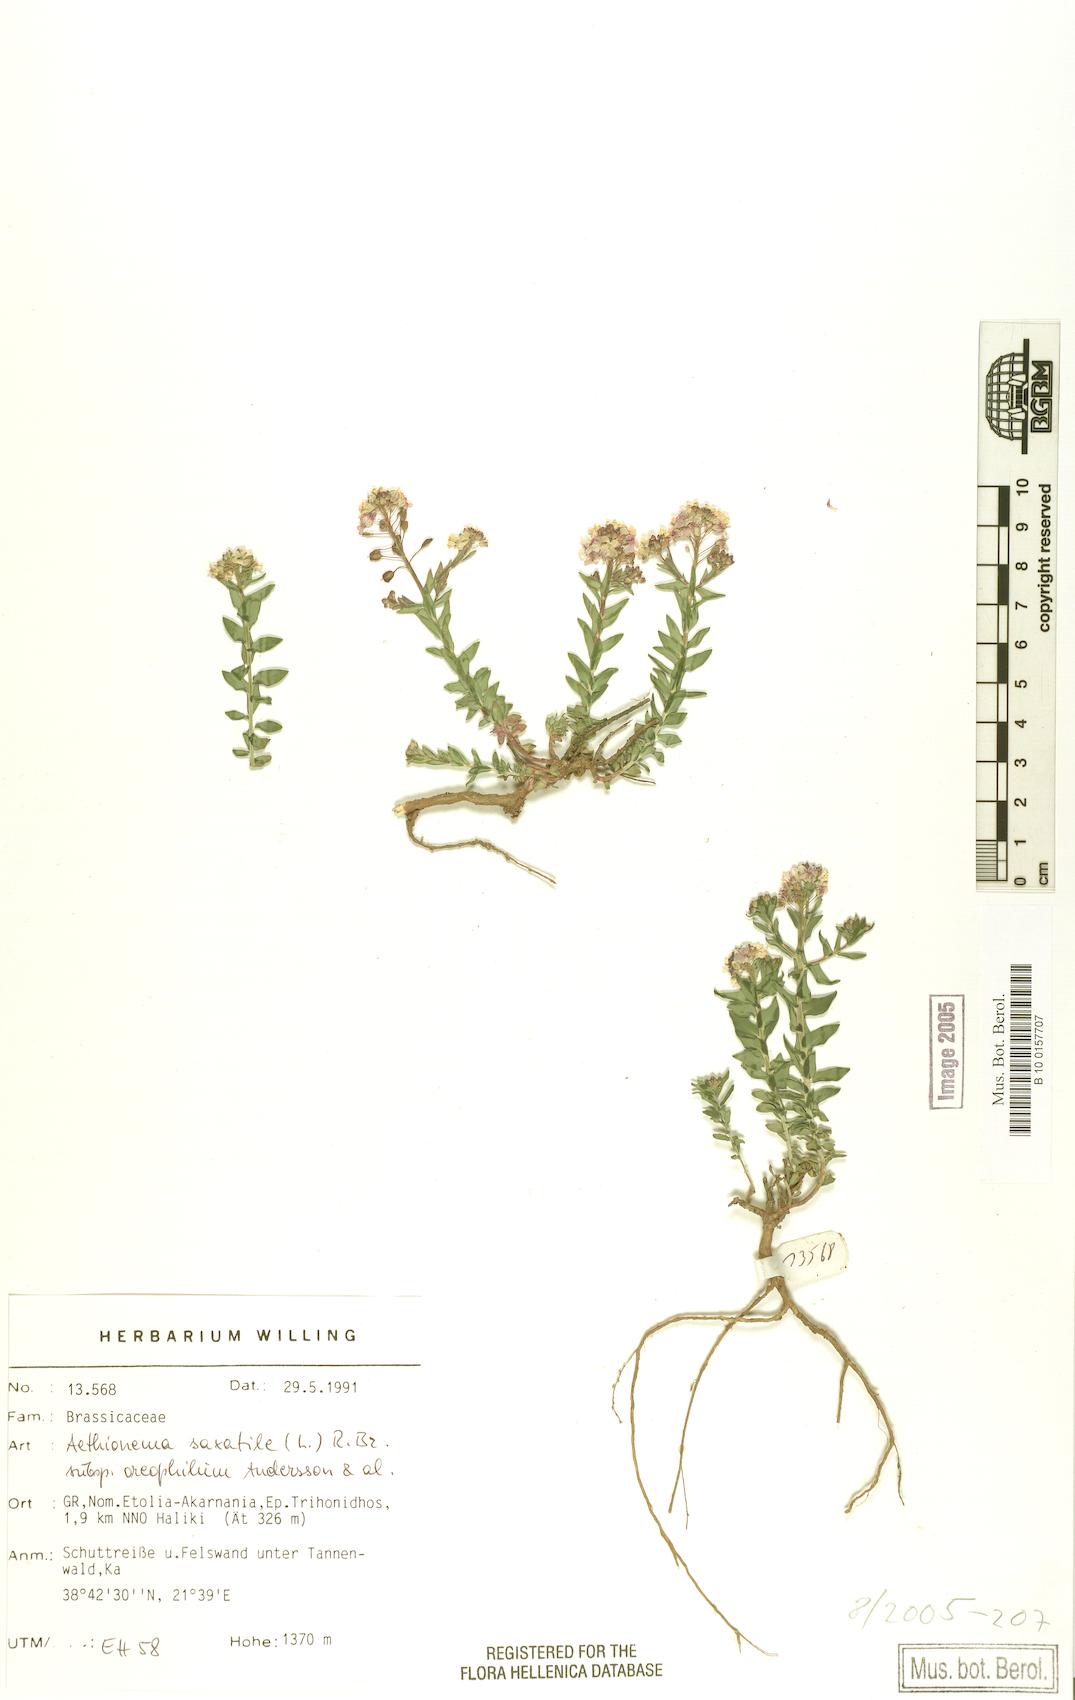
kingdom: Plantae
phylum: Tracheophyta
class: Magnoliopsida
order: Brassicales
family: Brassicaceae
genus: Aethionema
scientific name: Aethionema saxatile
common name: Burnt candytuft
